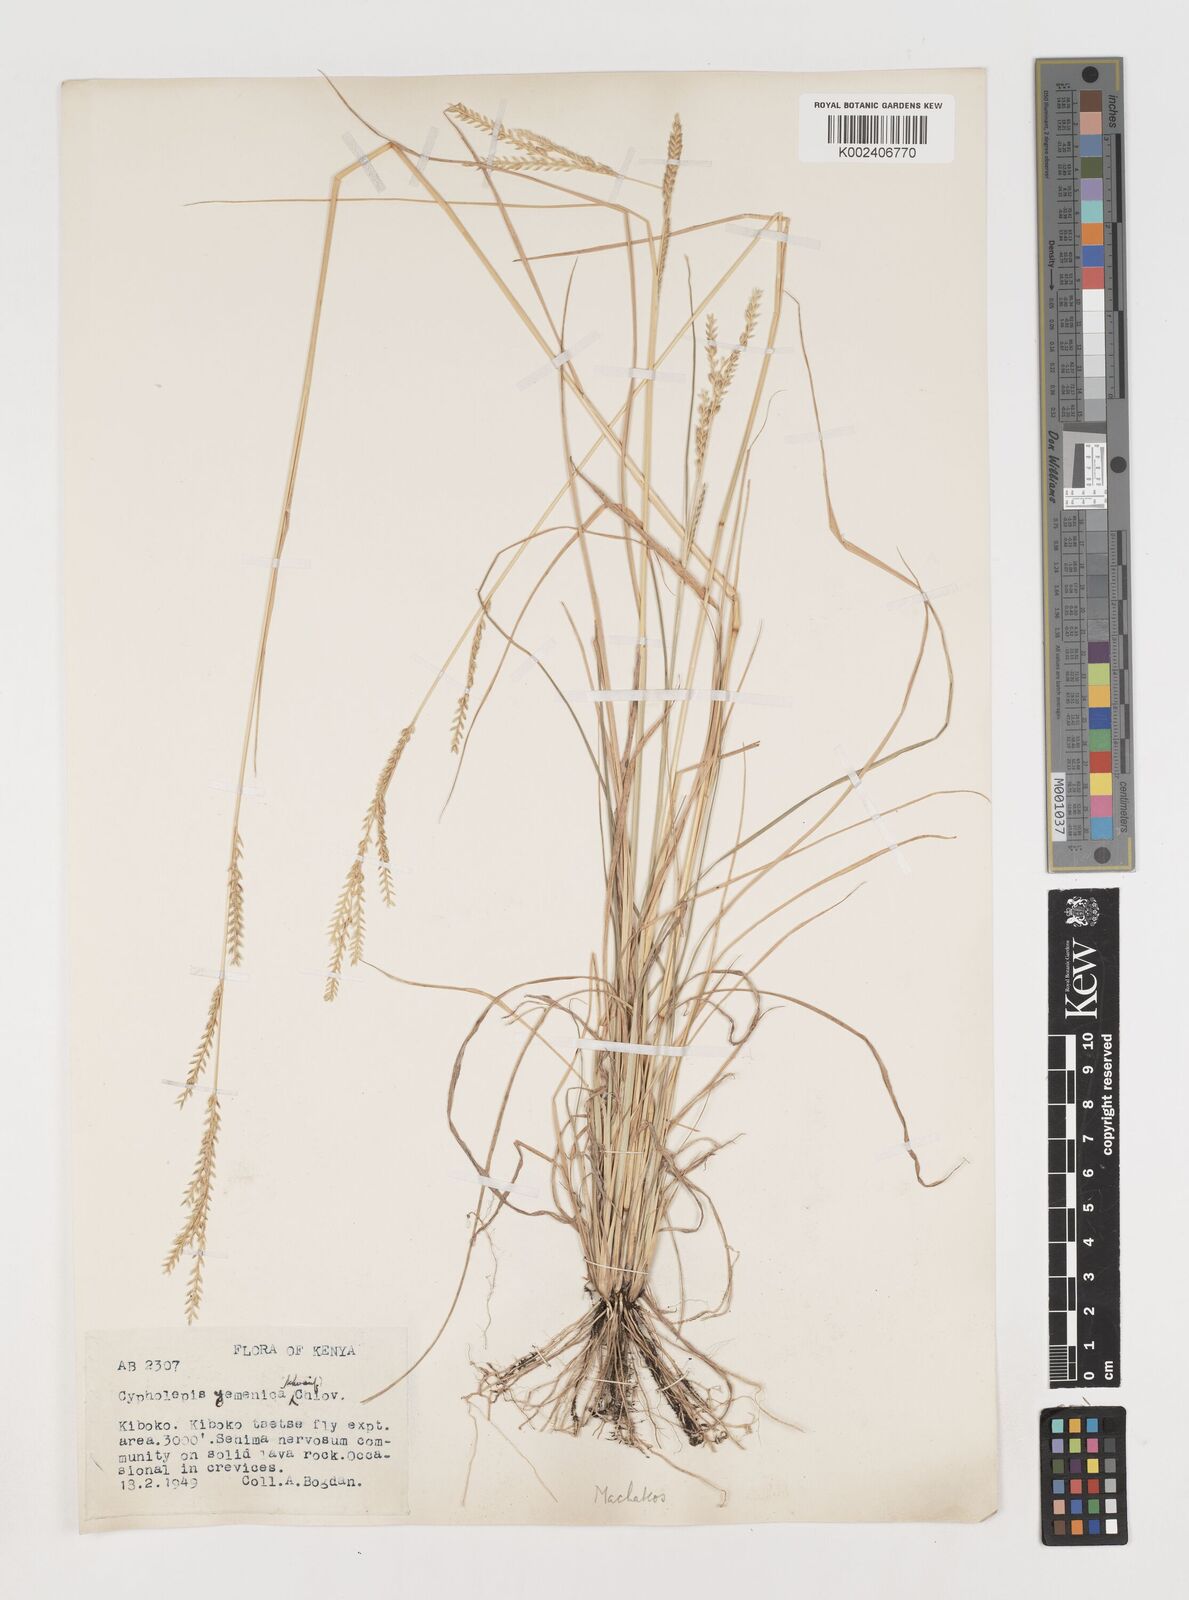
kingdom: Plantae
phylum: Tracheophyta
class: Liliopsida
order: Poales
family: Poaceae
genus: Disakisperma
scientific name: Disakisperma yemenicum
